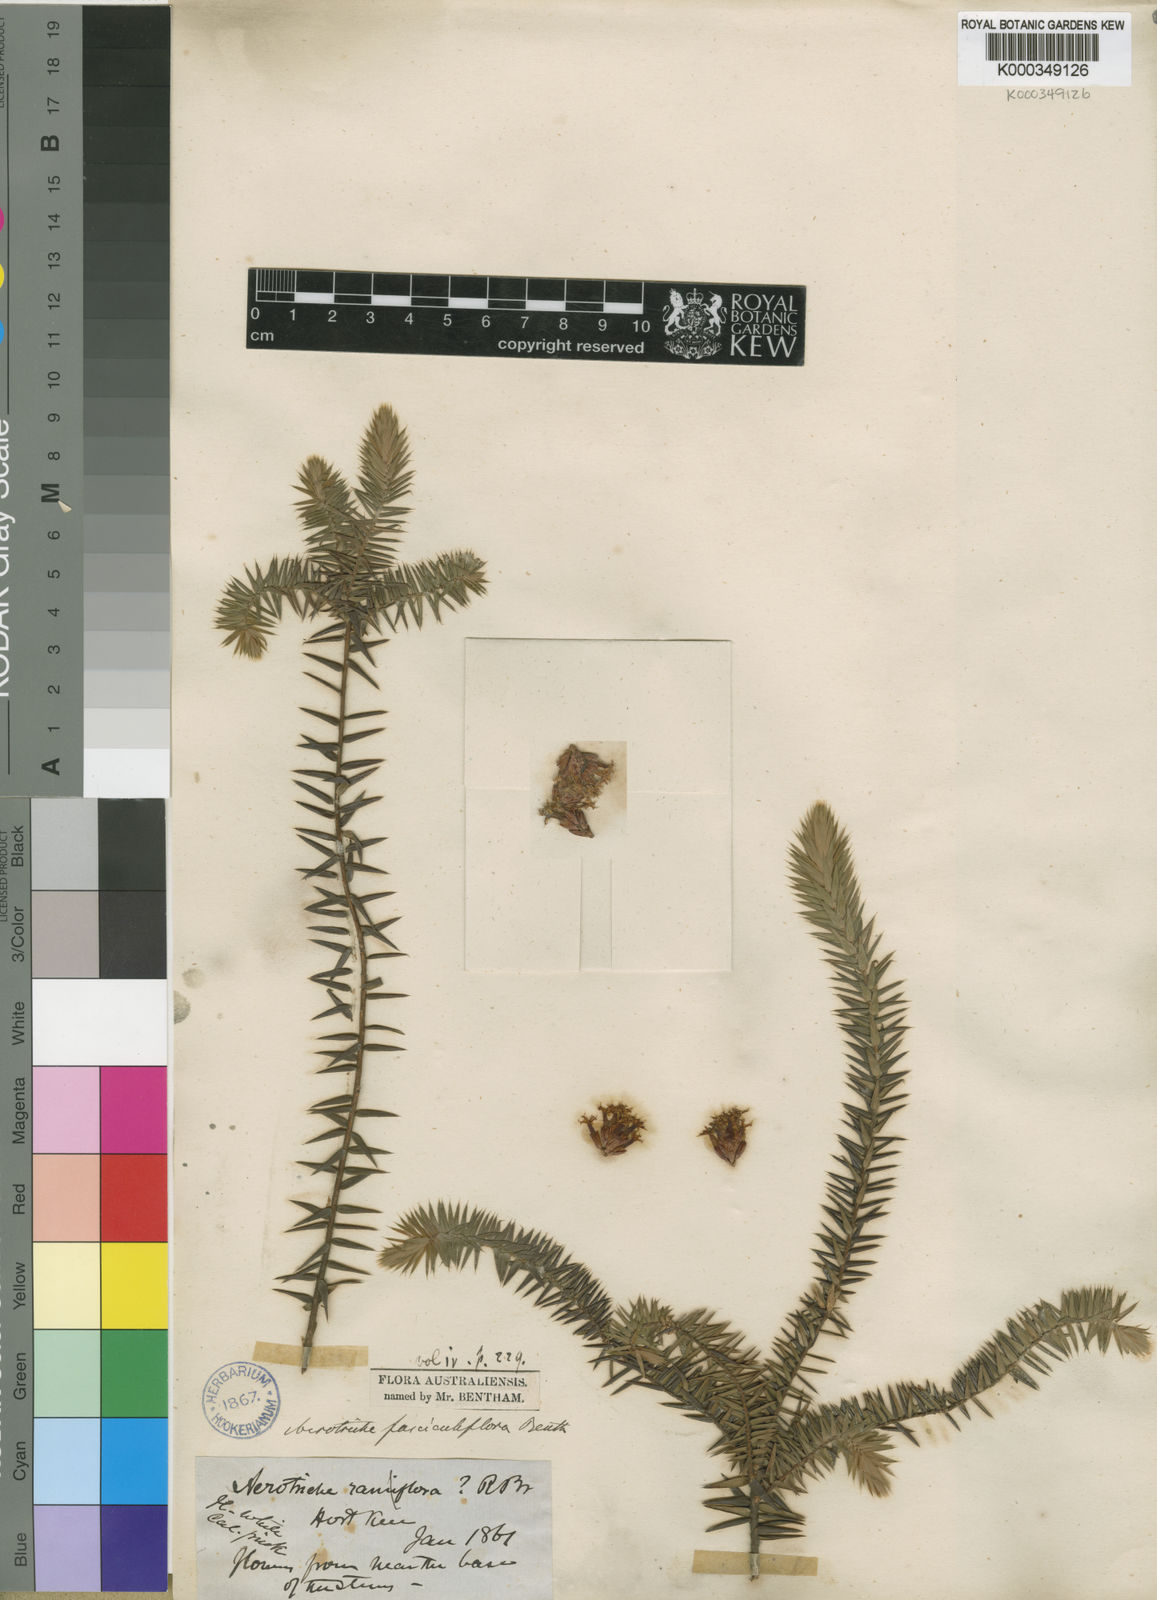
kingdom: Plantae
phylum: Tracheophyta
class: Magnoliopsida
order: Ericales
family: Ericaceae
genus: Acrotriche
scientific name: Acrotriche fasciculiflora
